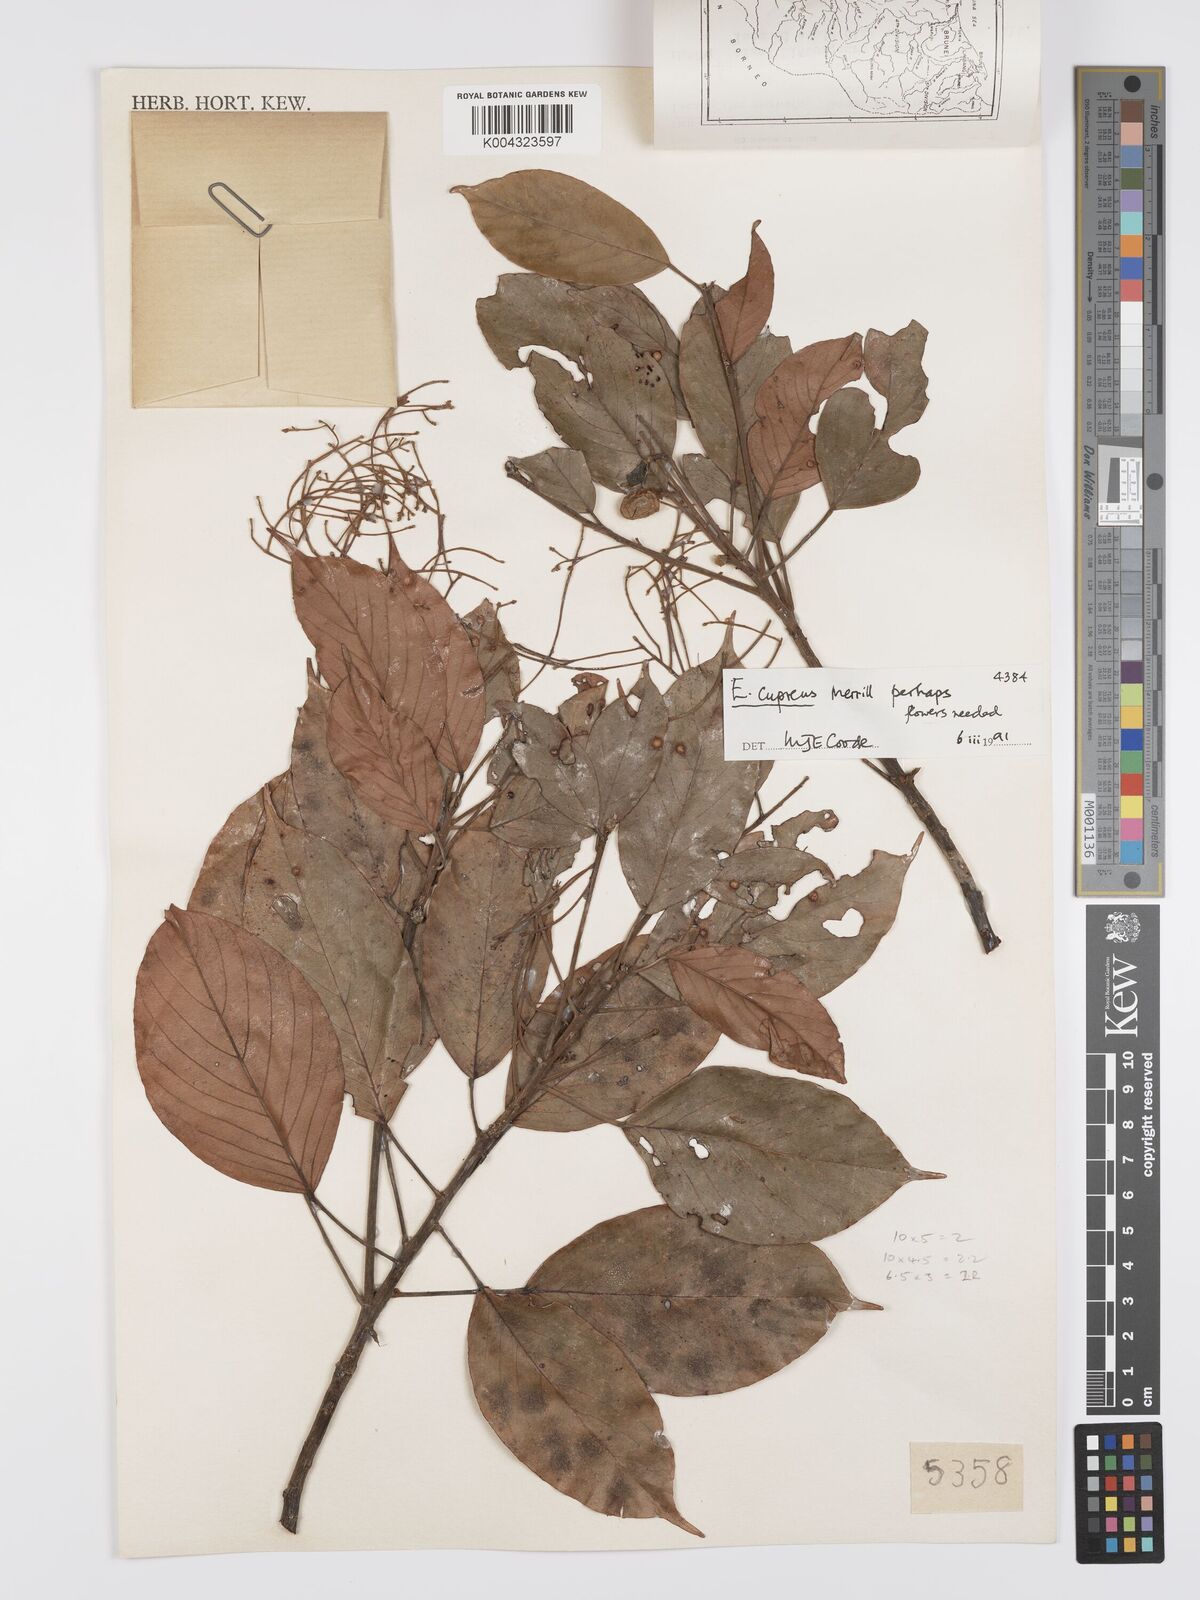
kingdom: Plantae
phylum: Tracheophyta
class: Magnoliopsida
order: Oxalidales
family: Elaeocarpaceae
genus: Elaeocarpus
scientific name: Elaeocarpus cupreus
